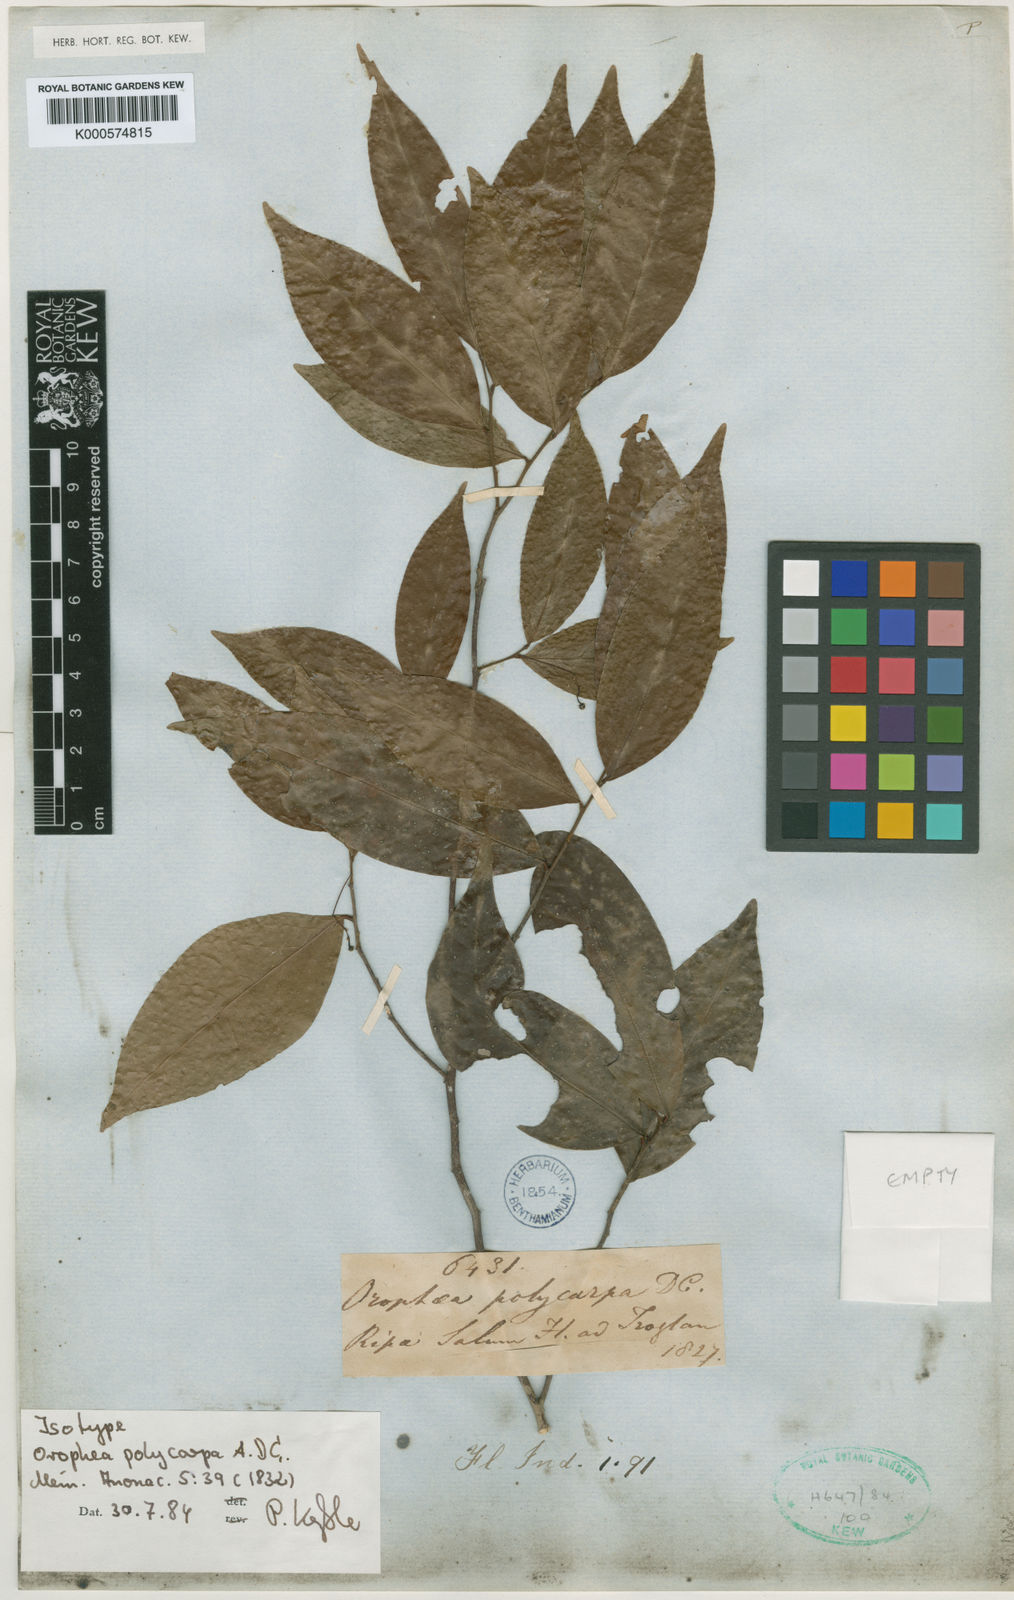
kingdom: Plantae
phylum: Tracheophyta
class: Magnoliopsida
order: Magnoliales
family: Annonaceae
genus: Orophea
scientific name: Orophea polycarpa
